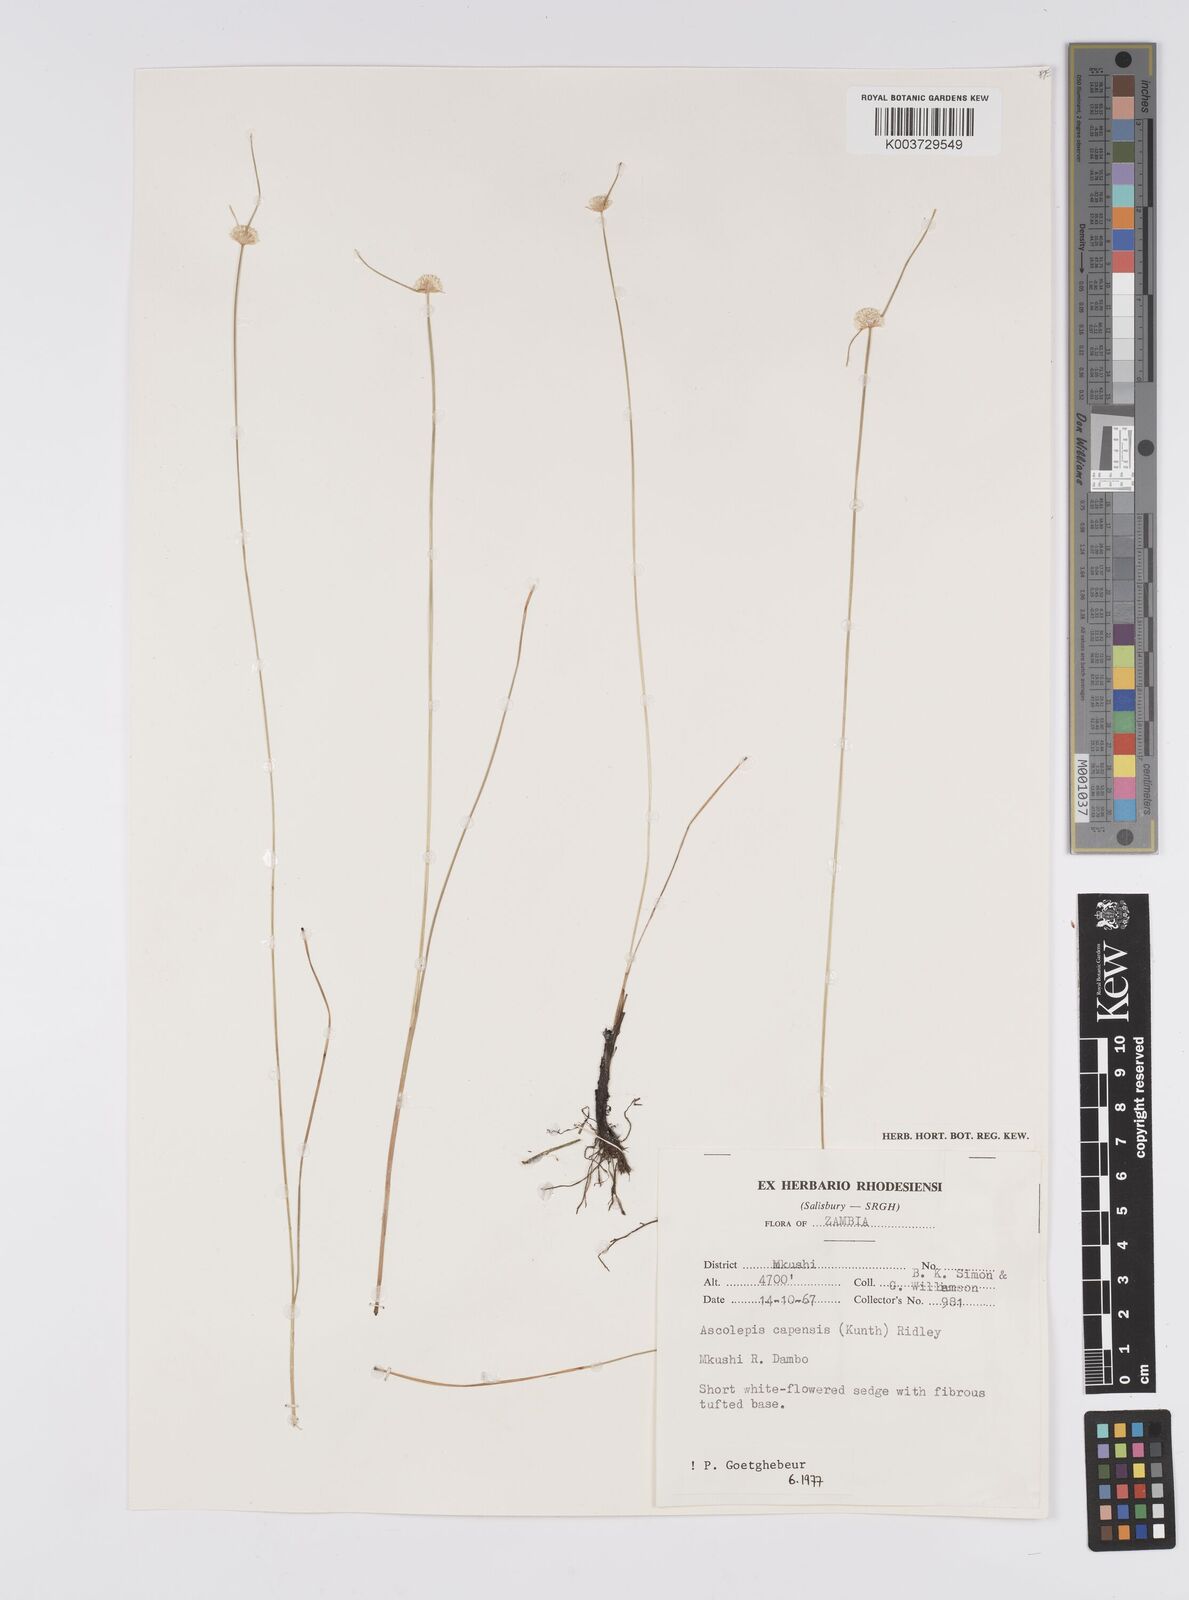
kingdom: Plantae
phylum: Tracheophyta
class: Liliopsida
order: Poales
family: Cyperaceae
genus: Cyperus
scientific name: Cyperus
